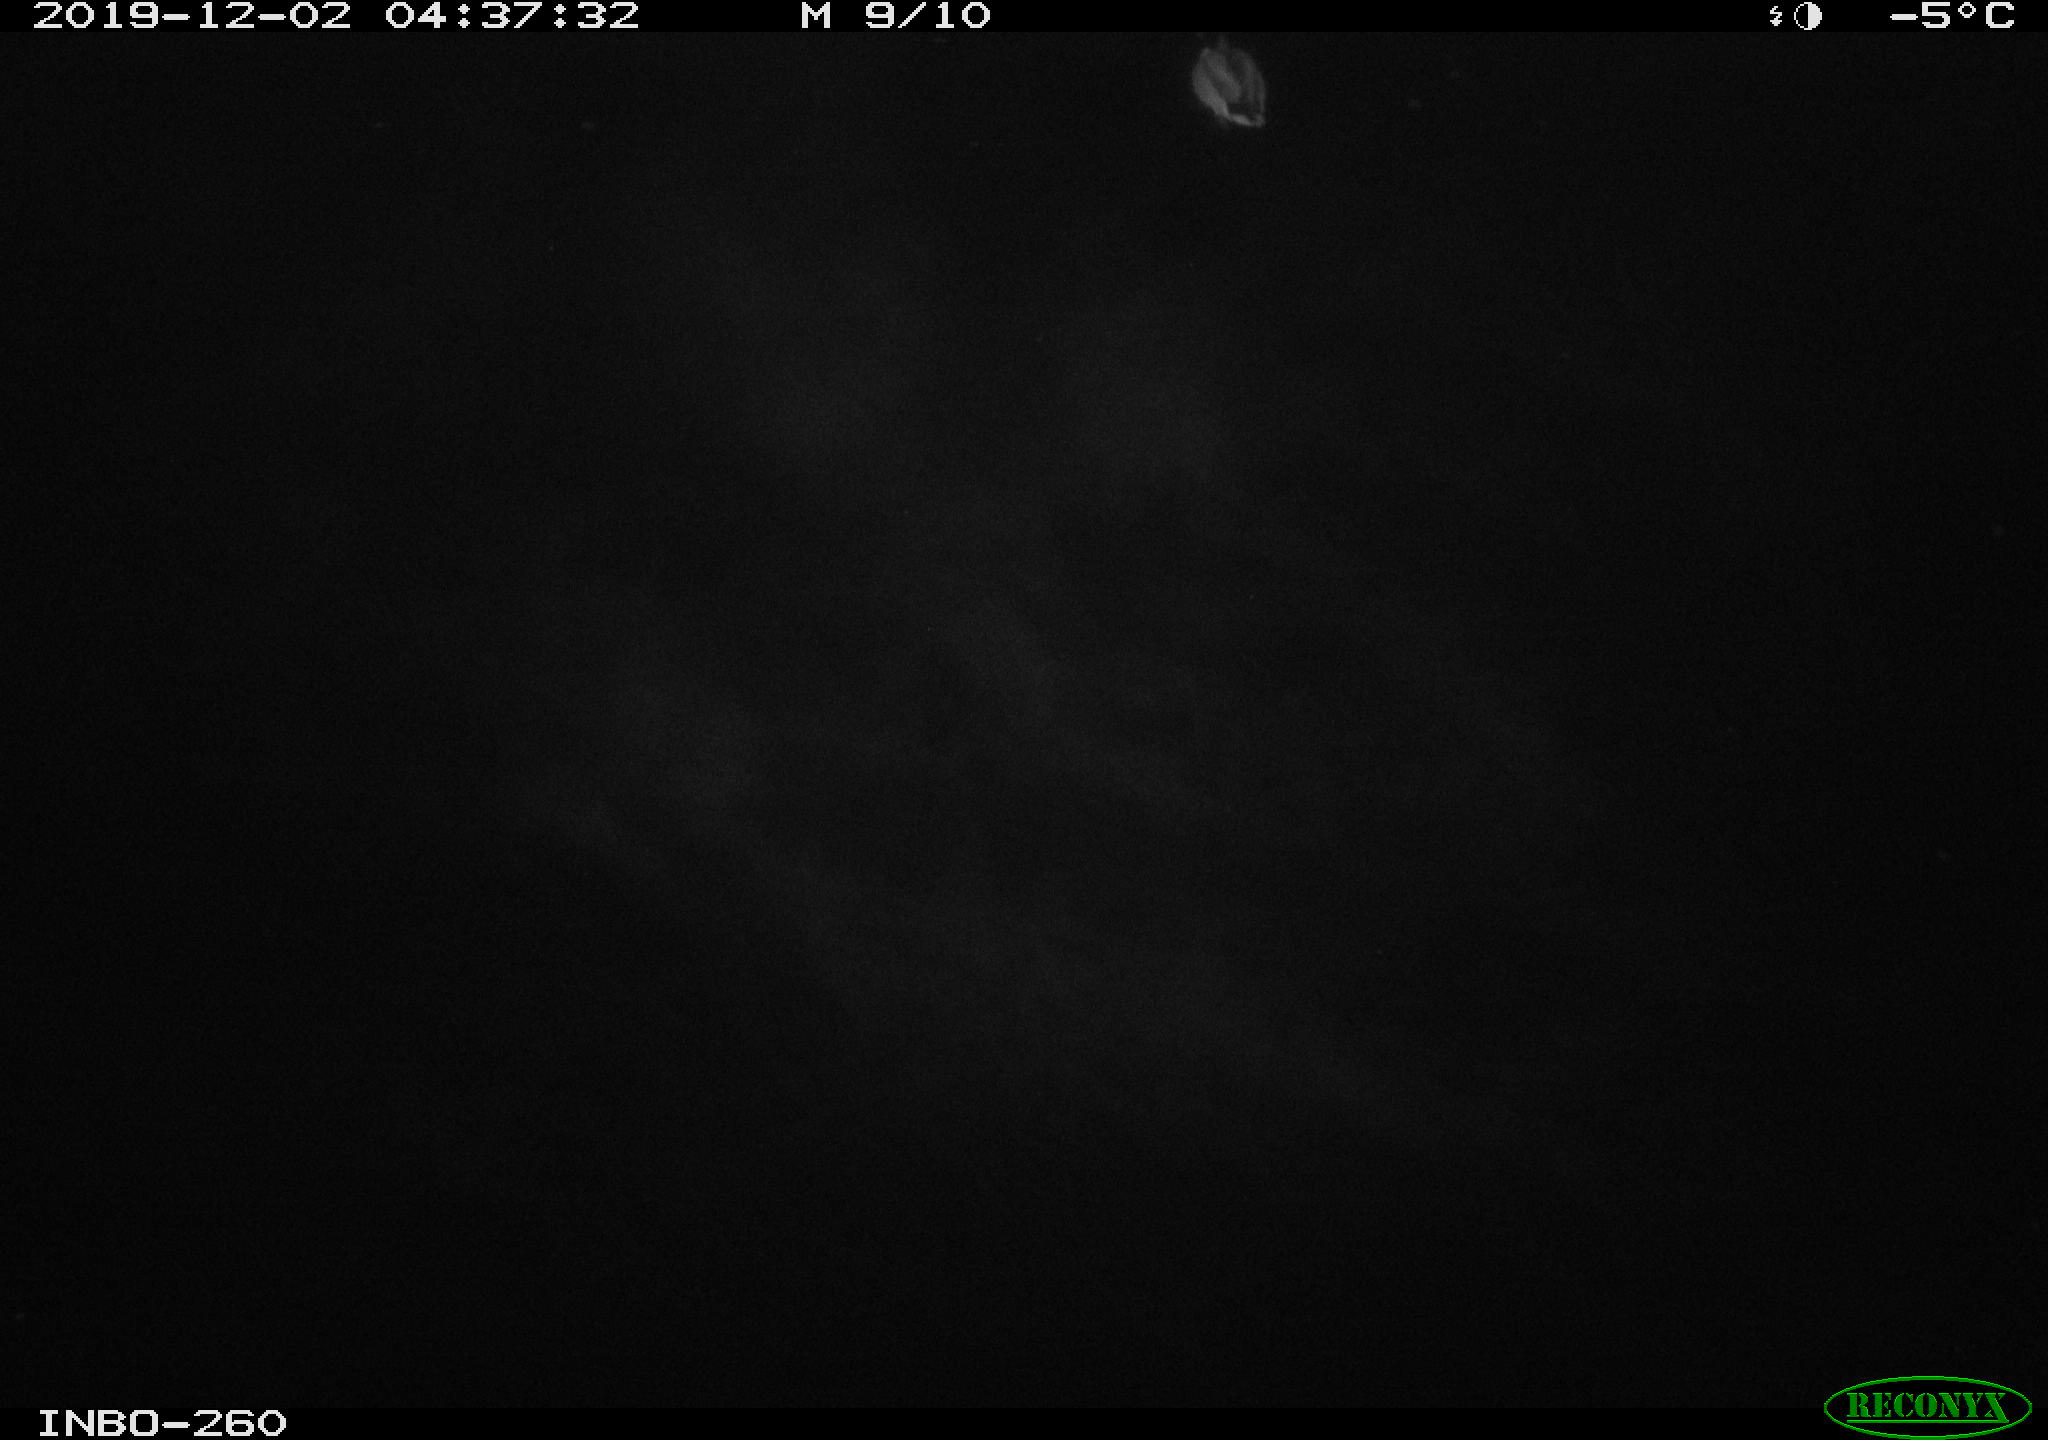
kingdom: Animalia
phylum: Chordata
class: Aves
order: Anseriformes
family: Anatidae
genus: Anas
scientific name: Anas platyrhynchos
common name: Mallard
